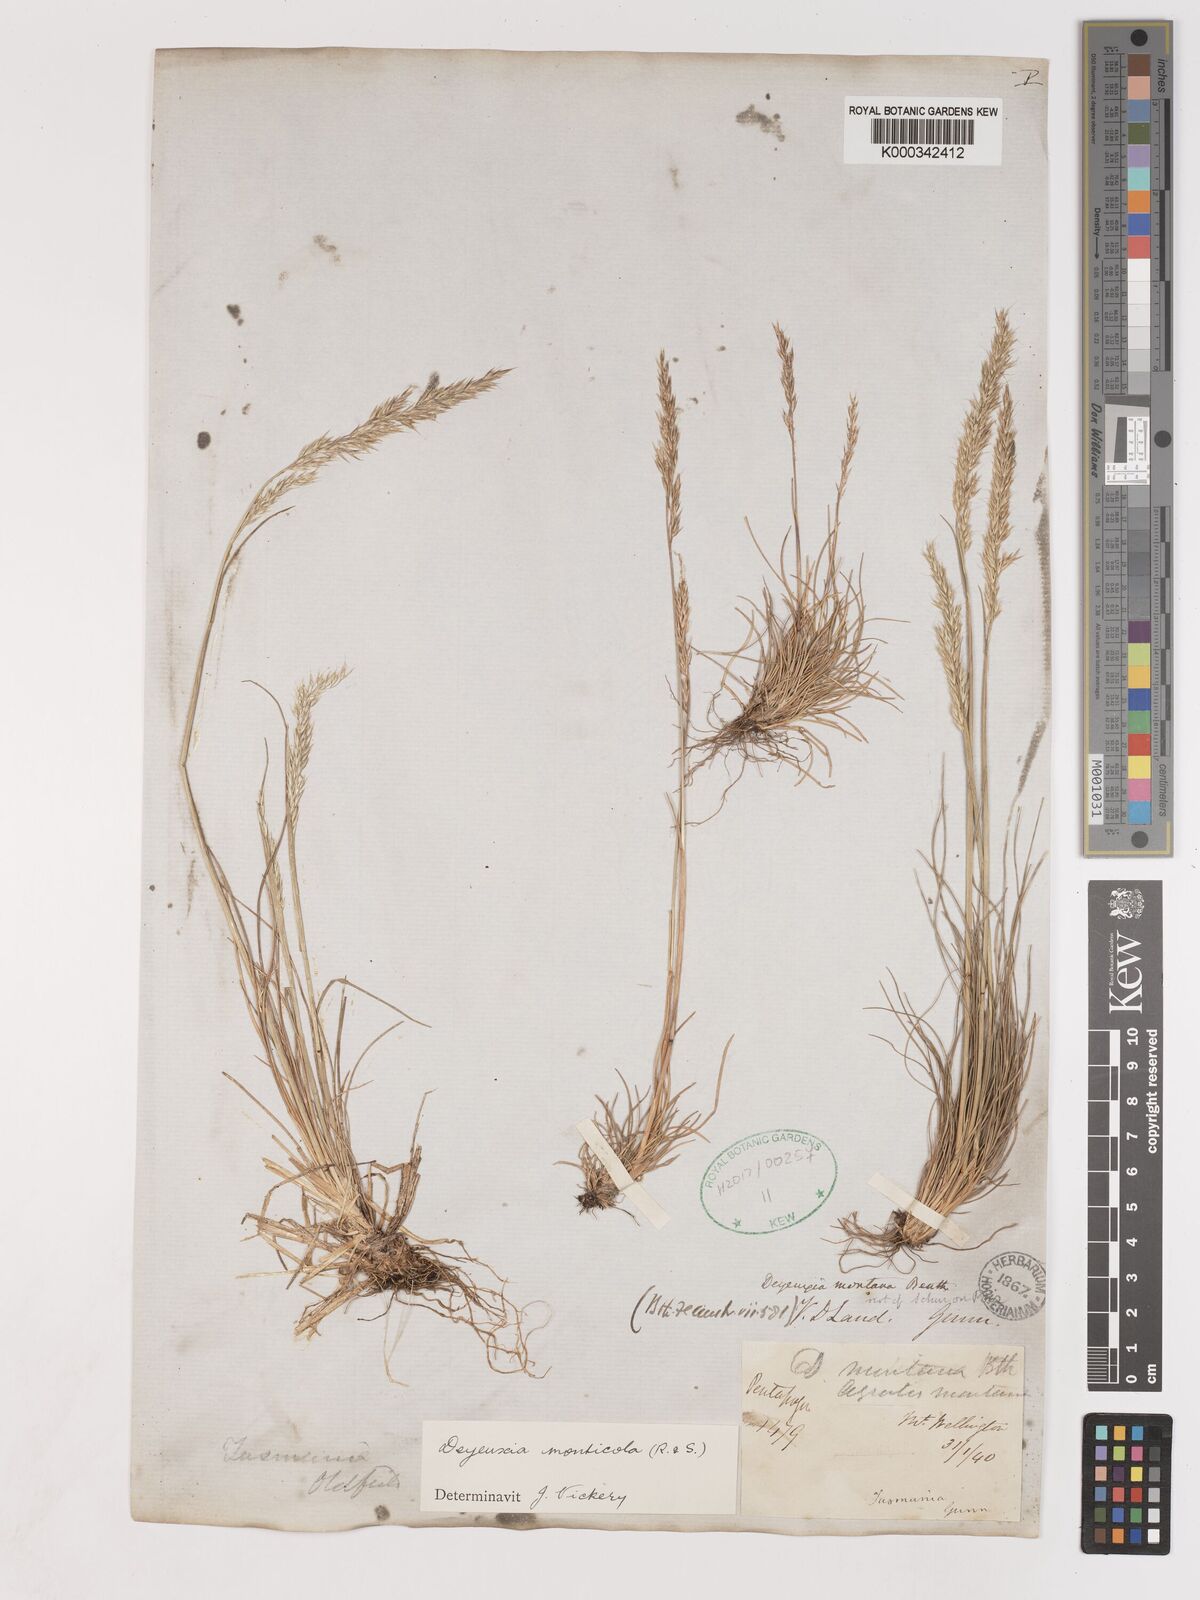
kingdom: Plantae
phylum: Tracheophyta
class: Liliopsida
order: Poales
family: Poaceae
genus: Calamagrostis
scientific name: Calamagrostis oreophila
